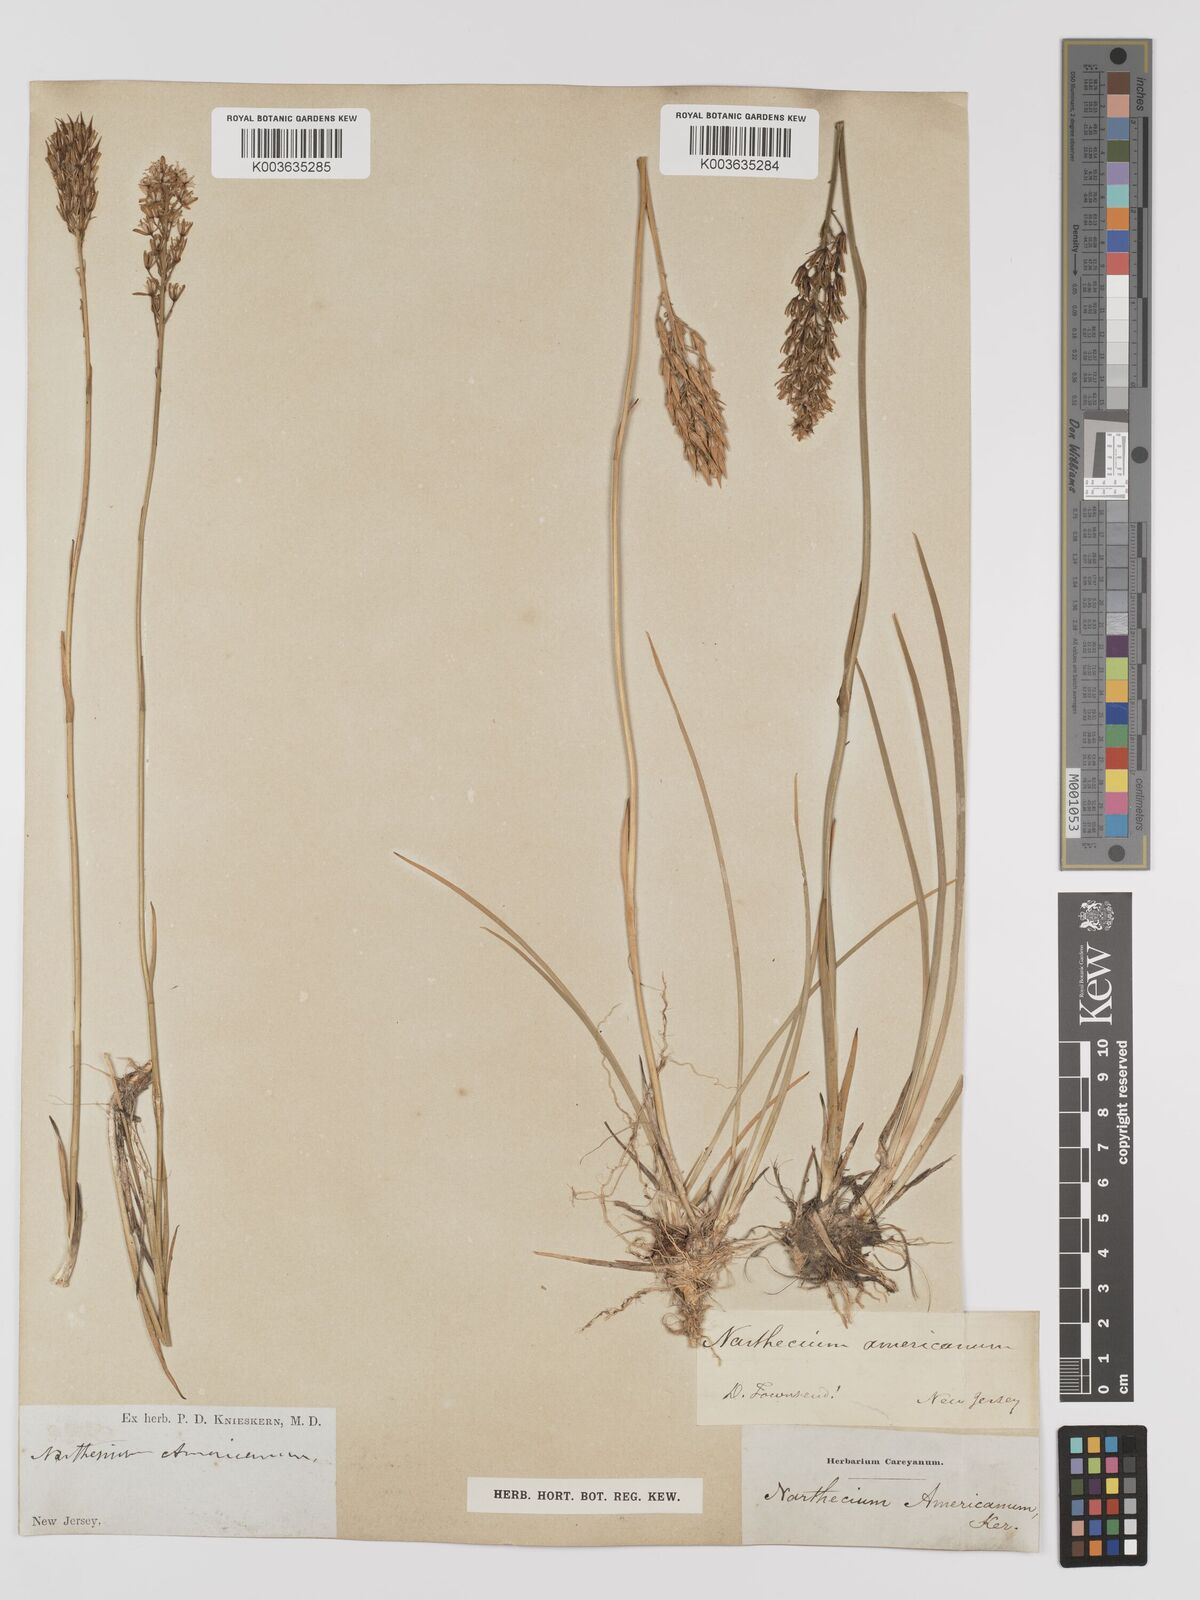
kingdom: Plantae
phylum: Tracheophyta
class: Liliopsida
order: Dioscoreales
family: Nartheciaceae
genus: Narthecium
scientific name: Narthecium americanum
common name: Bog-asphodel
